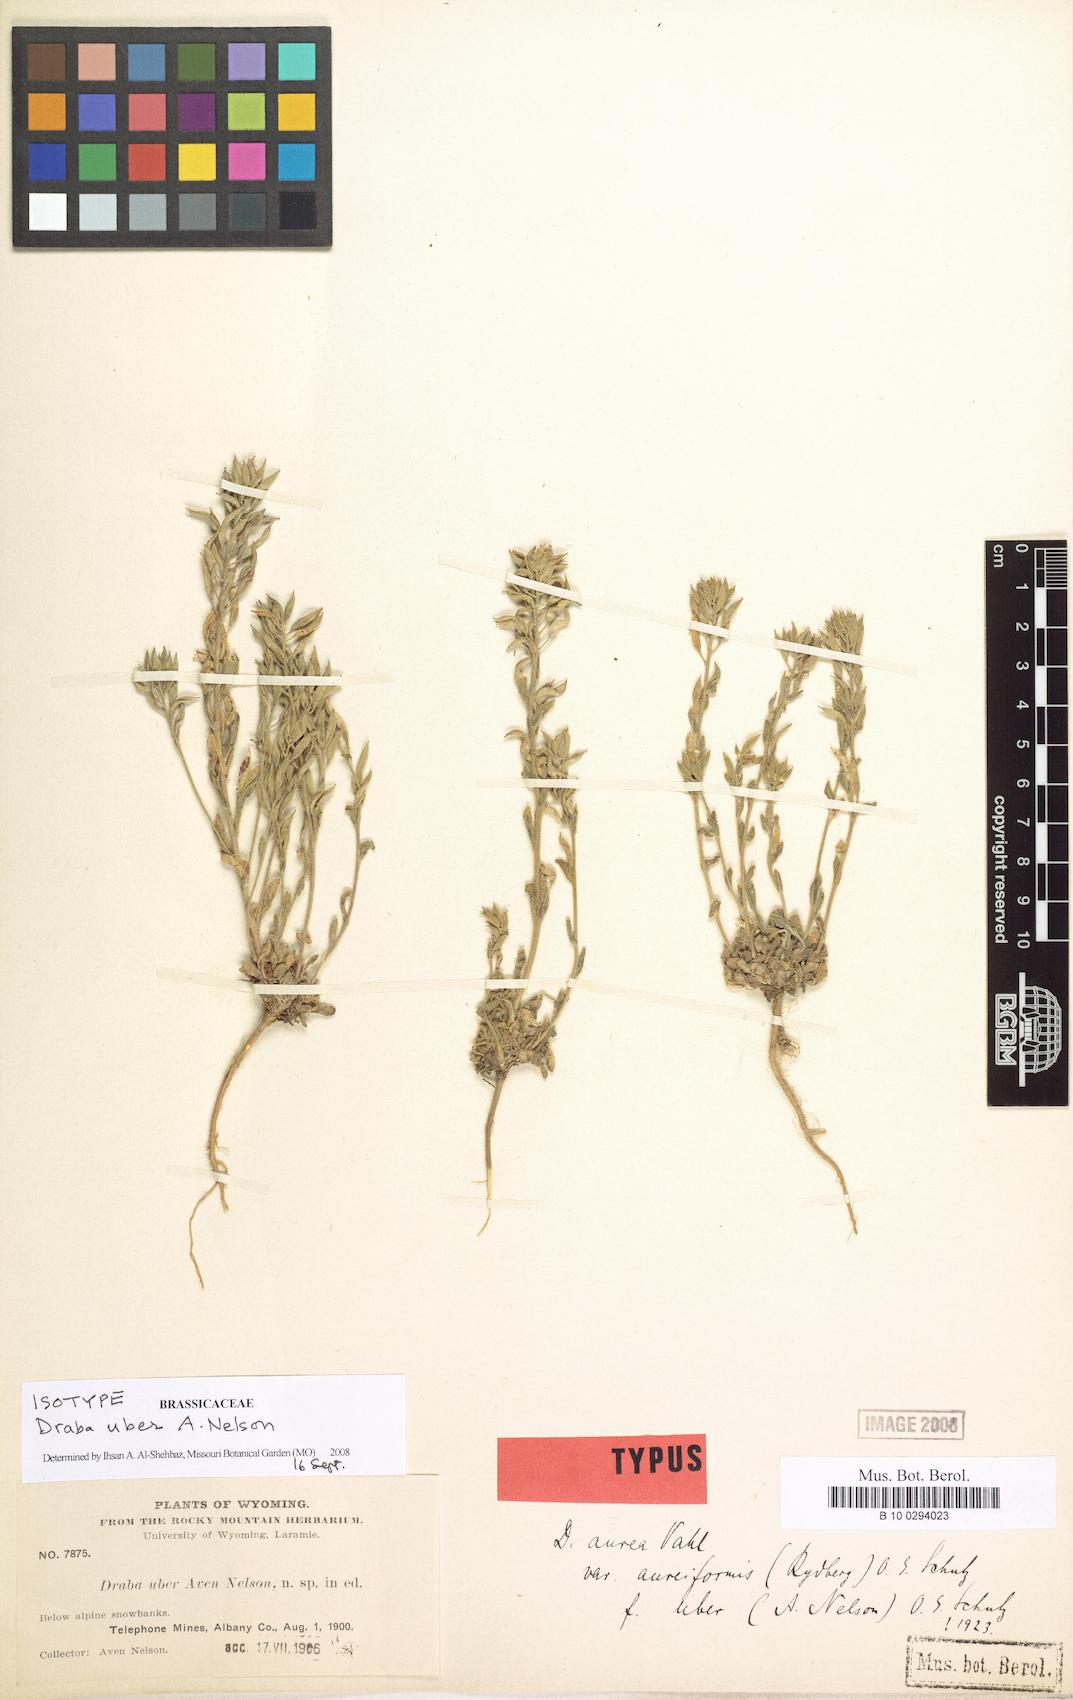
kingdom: Plantae
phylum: Tracheophyta
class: Magnoliopsida
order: Brassicales
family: Brassicaceae
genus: Draba
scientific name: Draba aurea
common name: Golden draba
